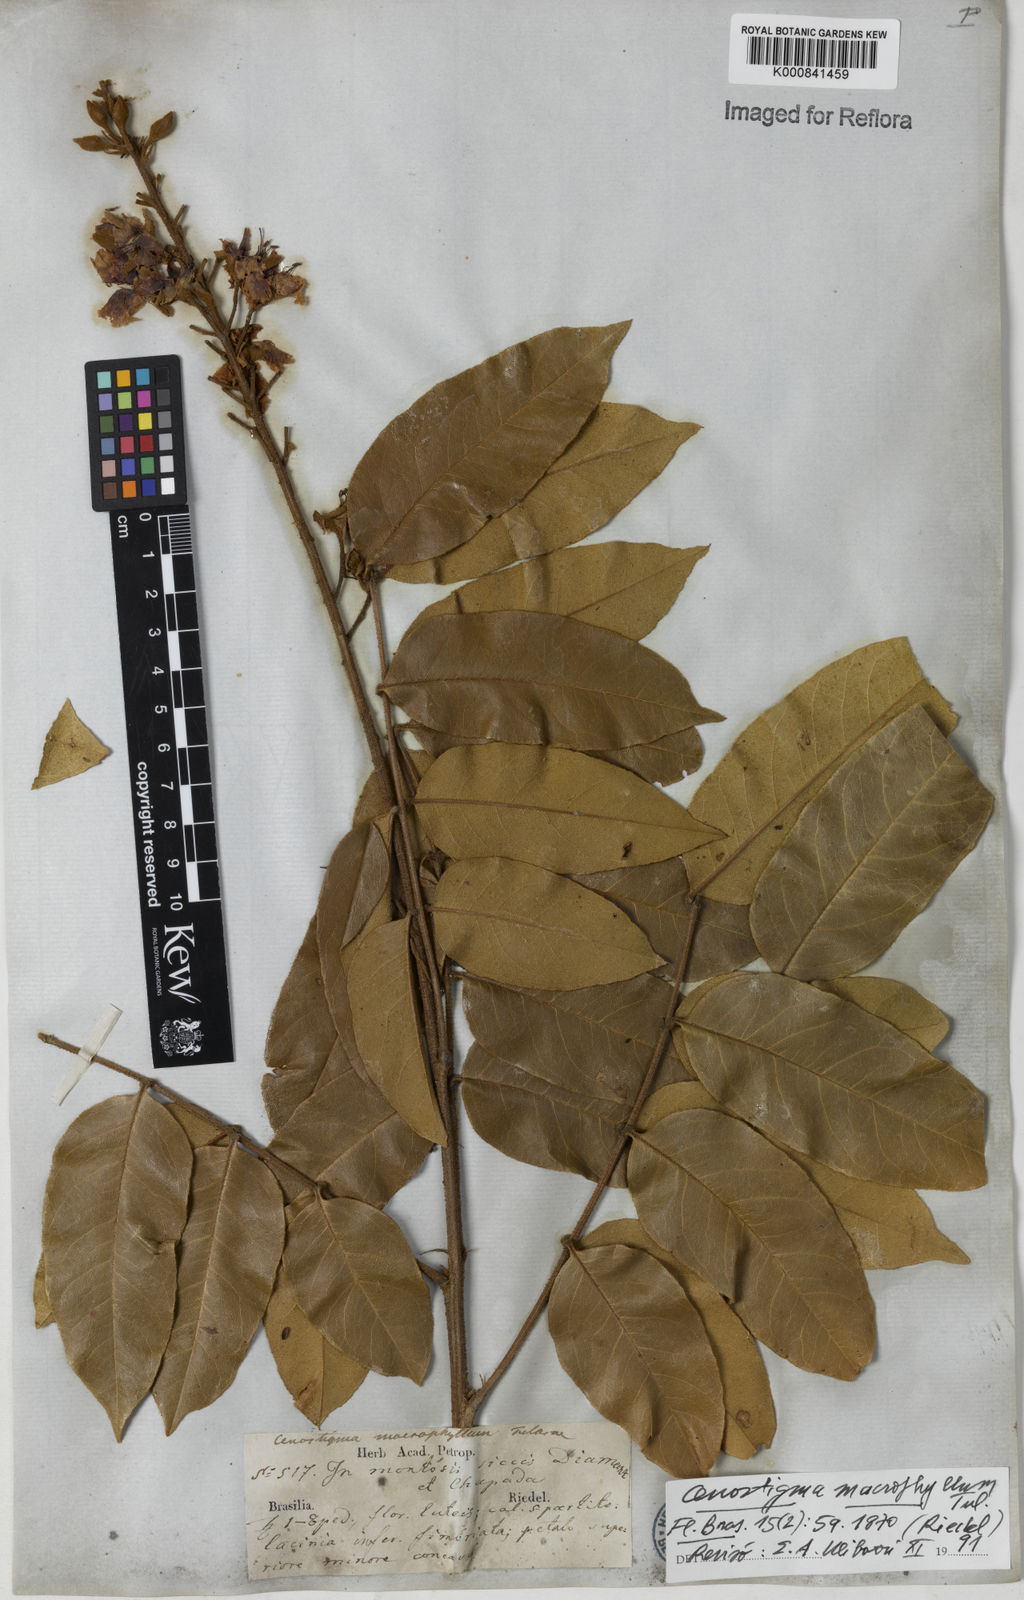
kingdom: Plantae
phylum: Tracheophyta
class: Magnoliopsida
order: Fabales
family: Fabaceae
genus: Cenostigma
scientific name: Cenostigma macrophyllum
